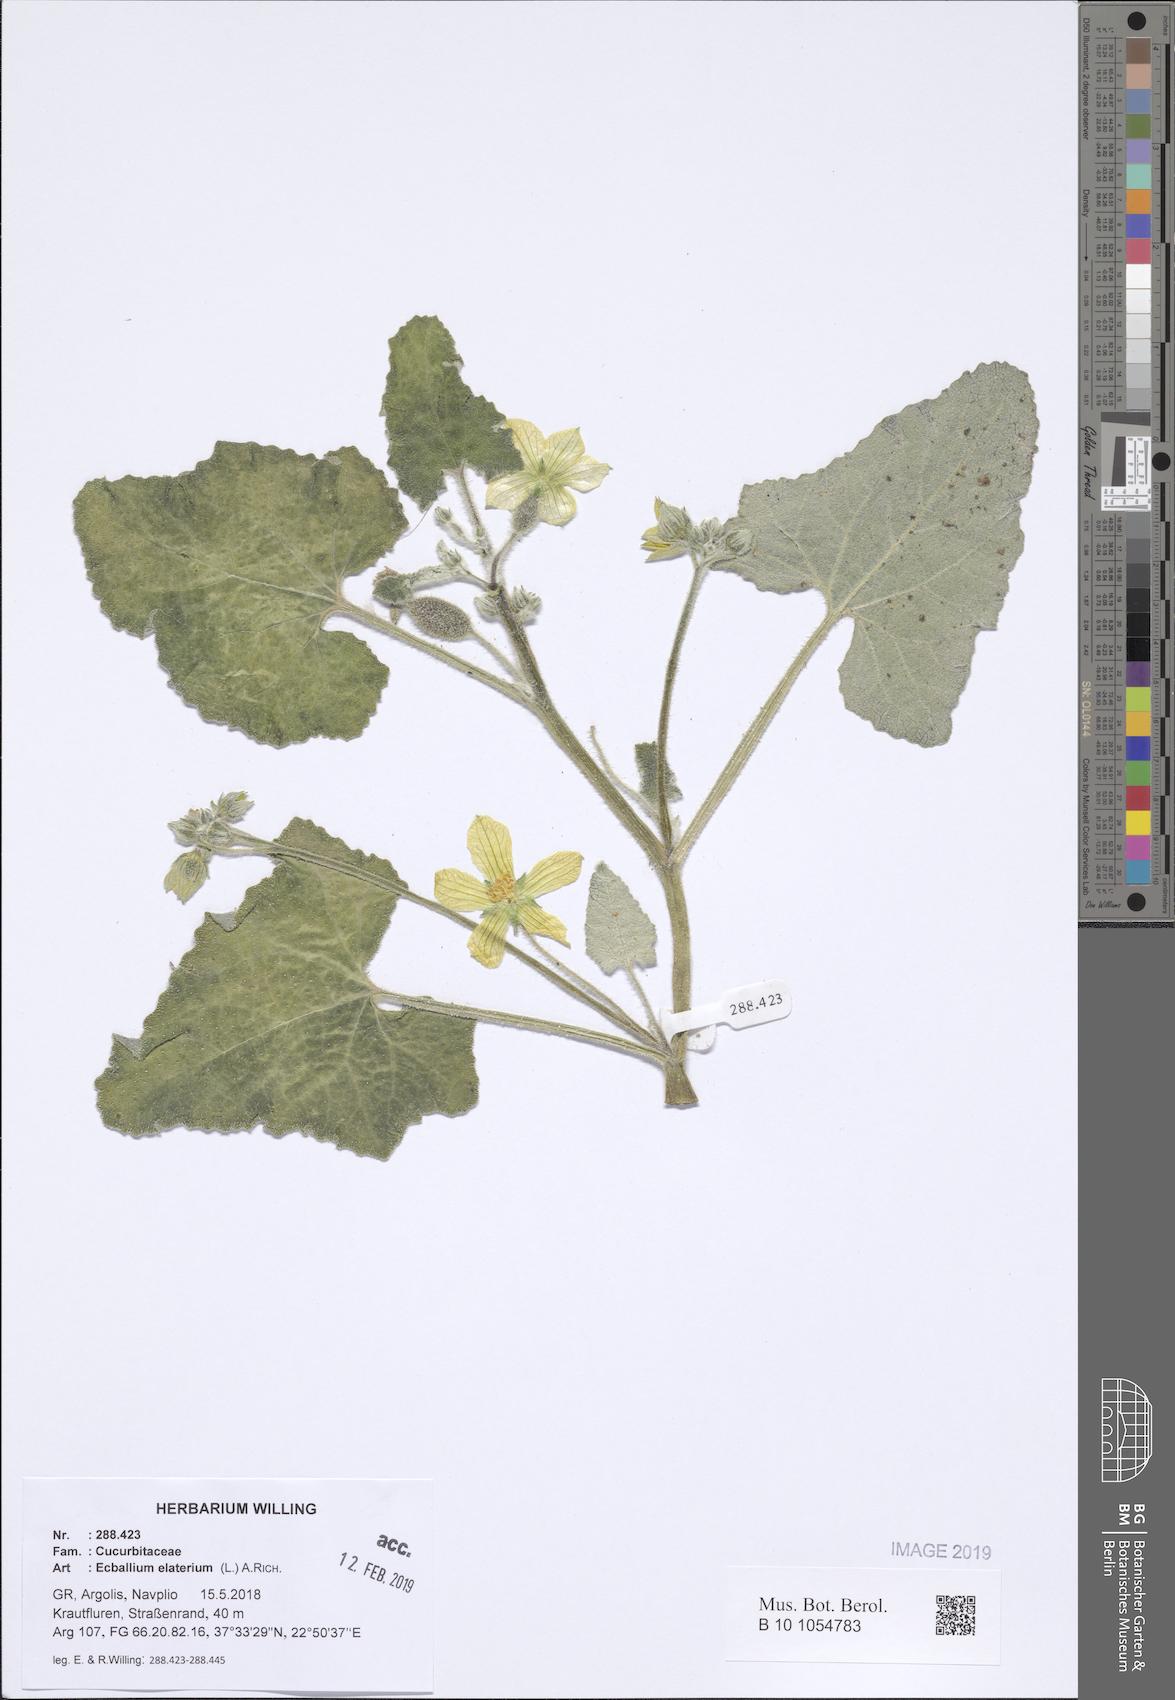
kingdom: Plantae
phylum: Tracheophyta
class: Magnoliopsida
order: Cucurbitales
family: Cucurbitaceae
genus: Ecballium
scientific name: Ecballium elaterium
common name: Squirting cucumber
